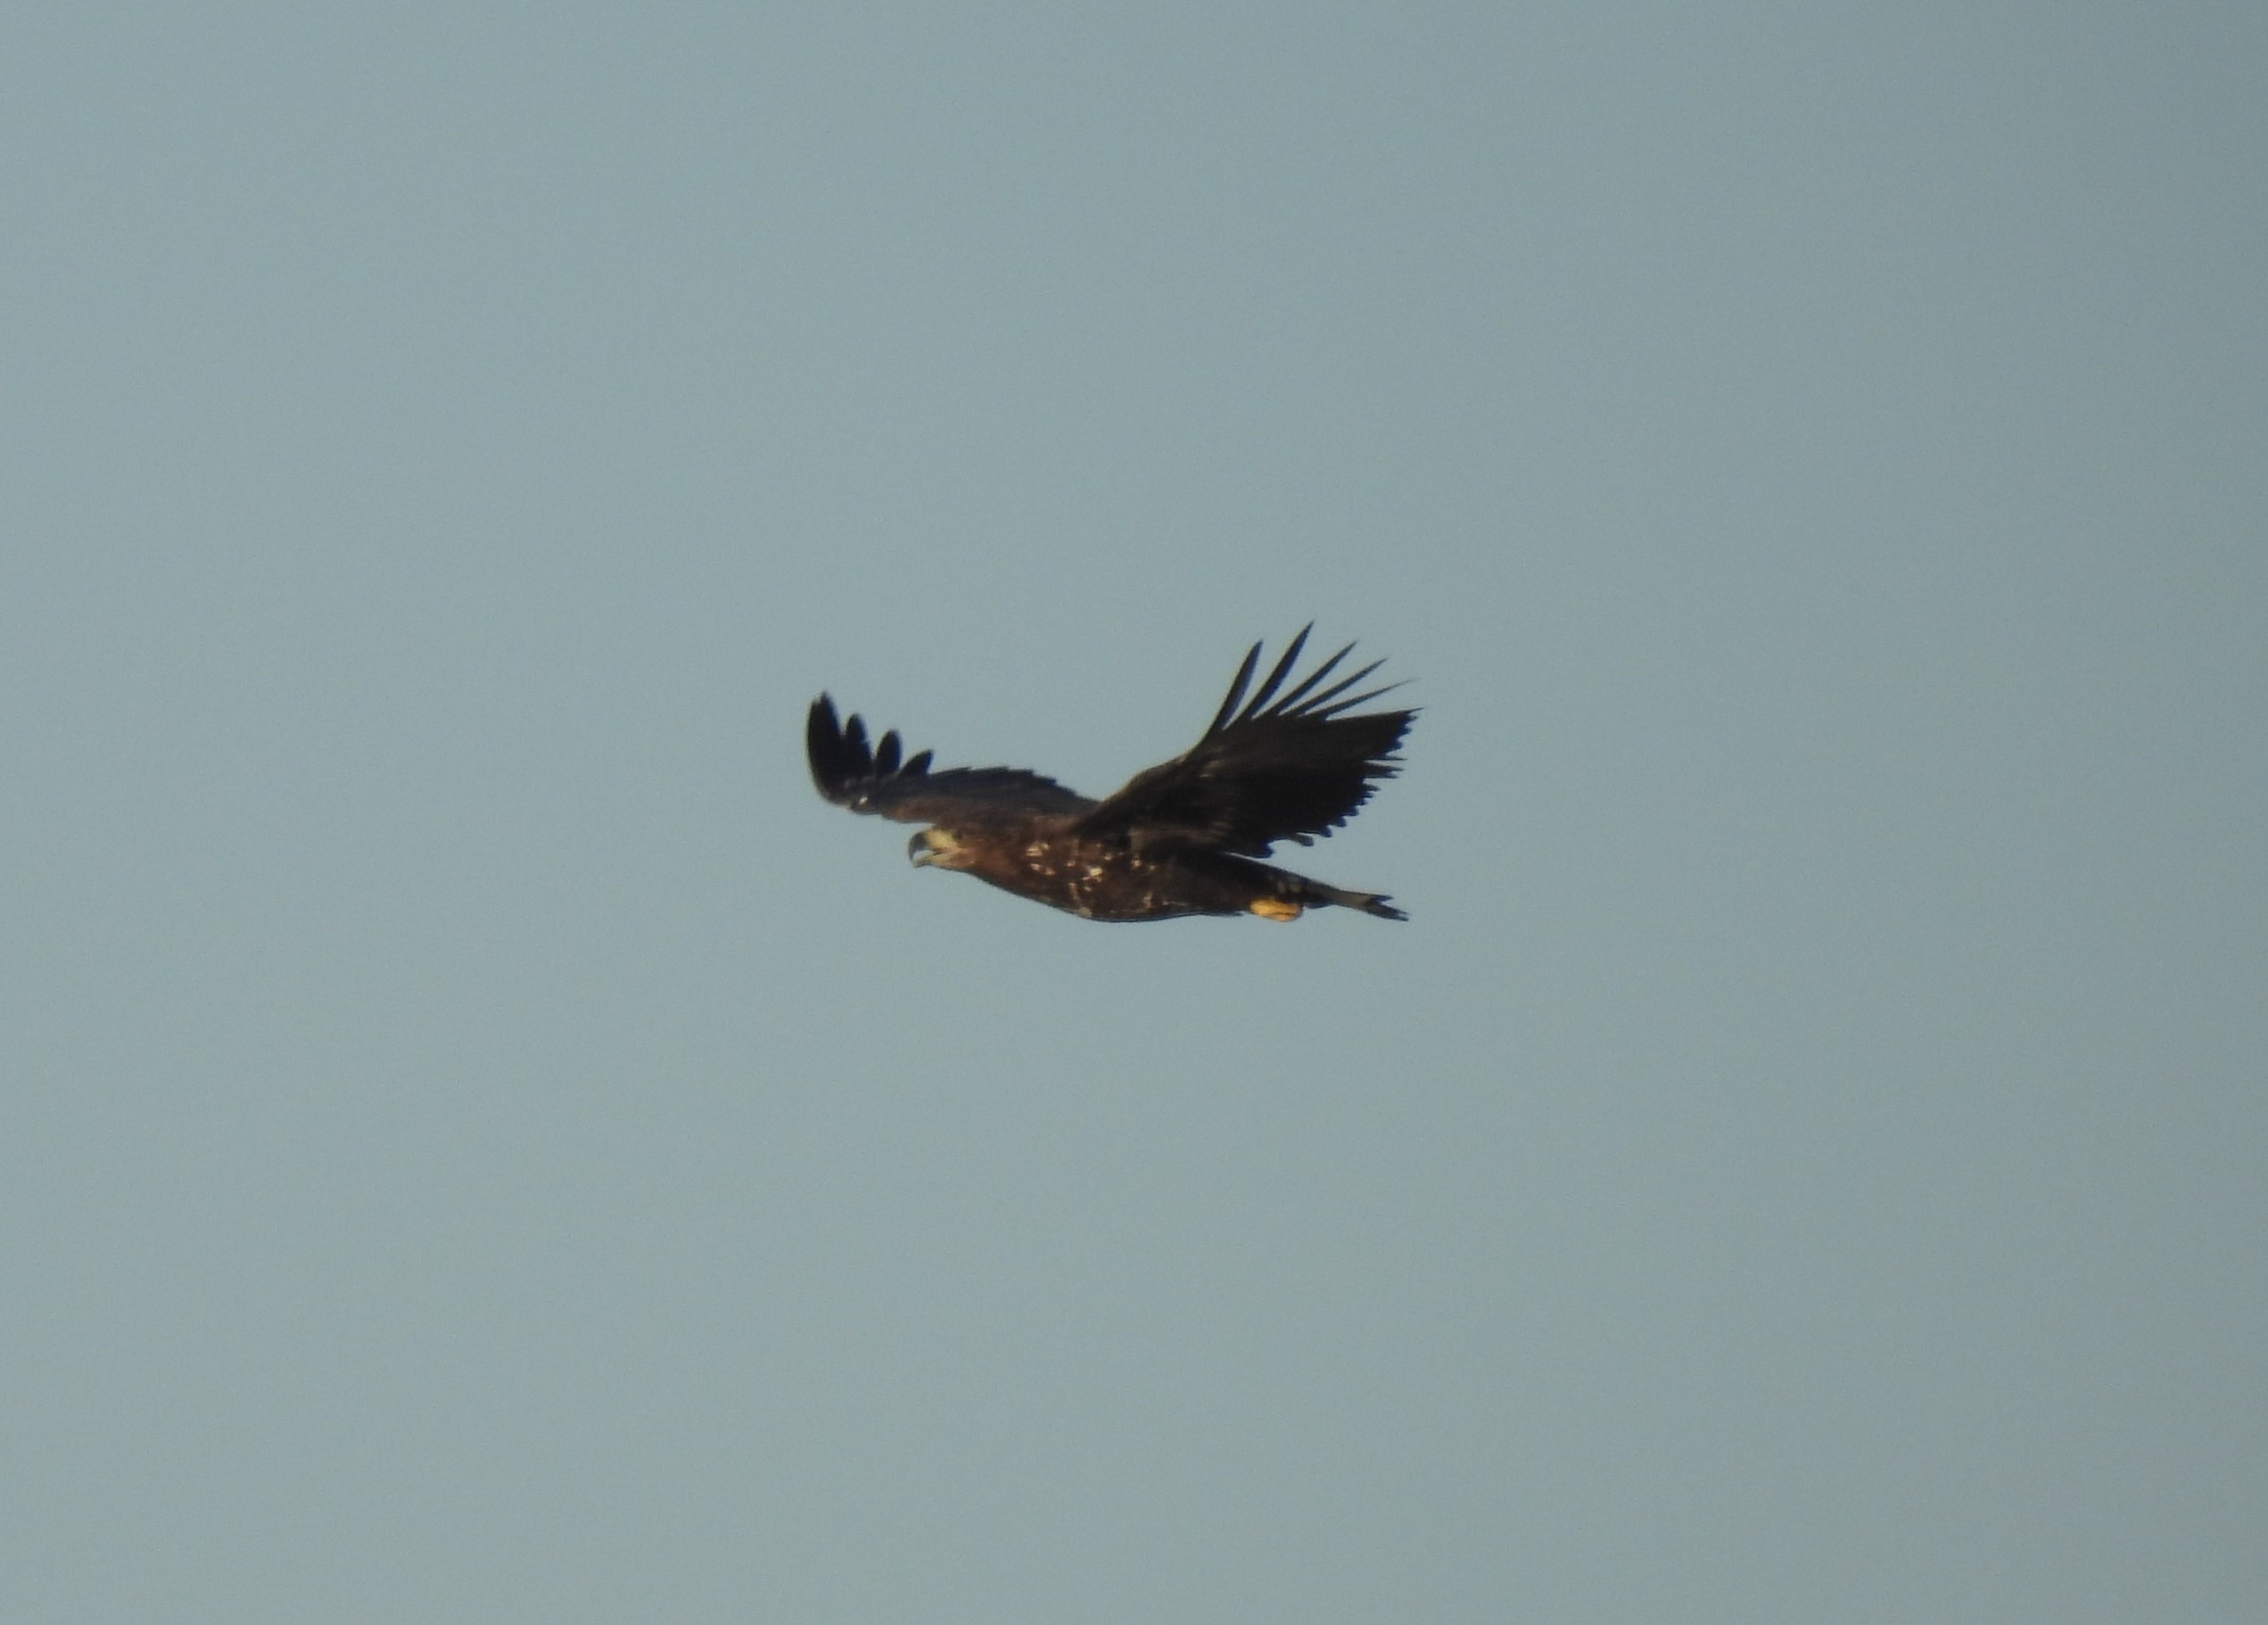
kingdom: Animalia
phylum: Chordata
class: Aves
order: Accipitriformes
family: Accipitridae
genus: Haliaeetus
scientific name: Haliaeetus albicilla
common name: Havørn
